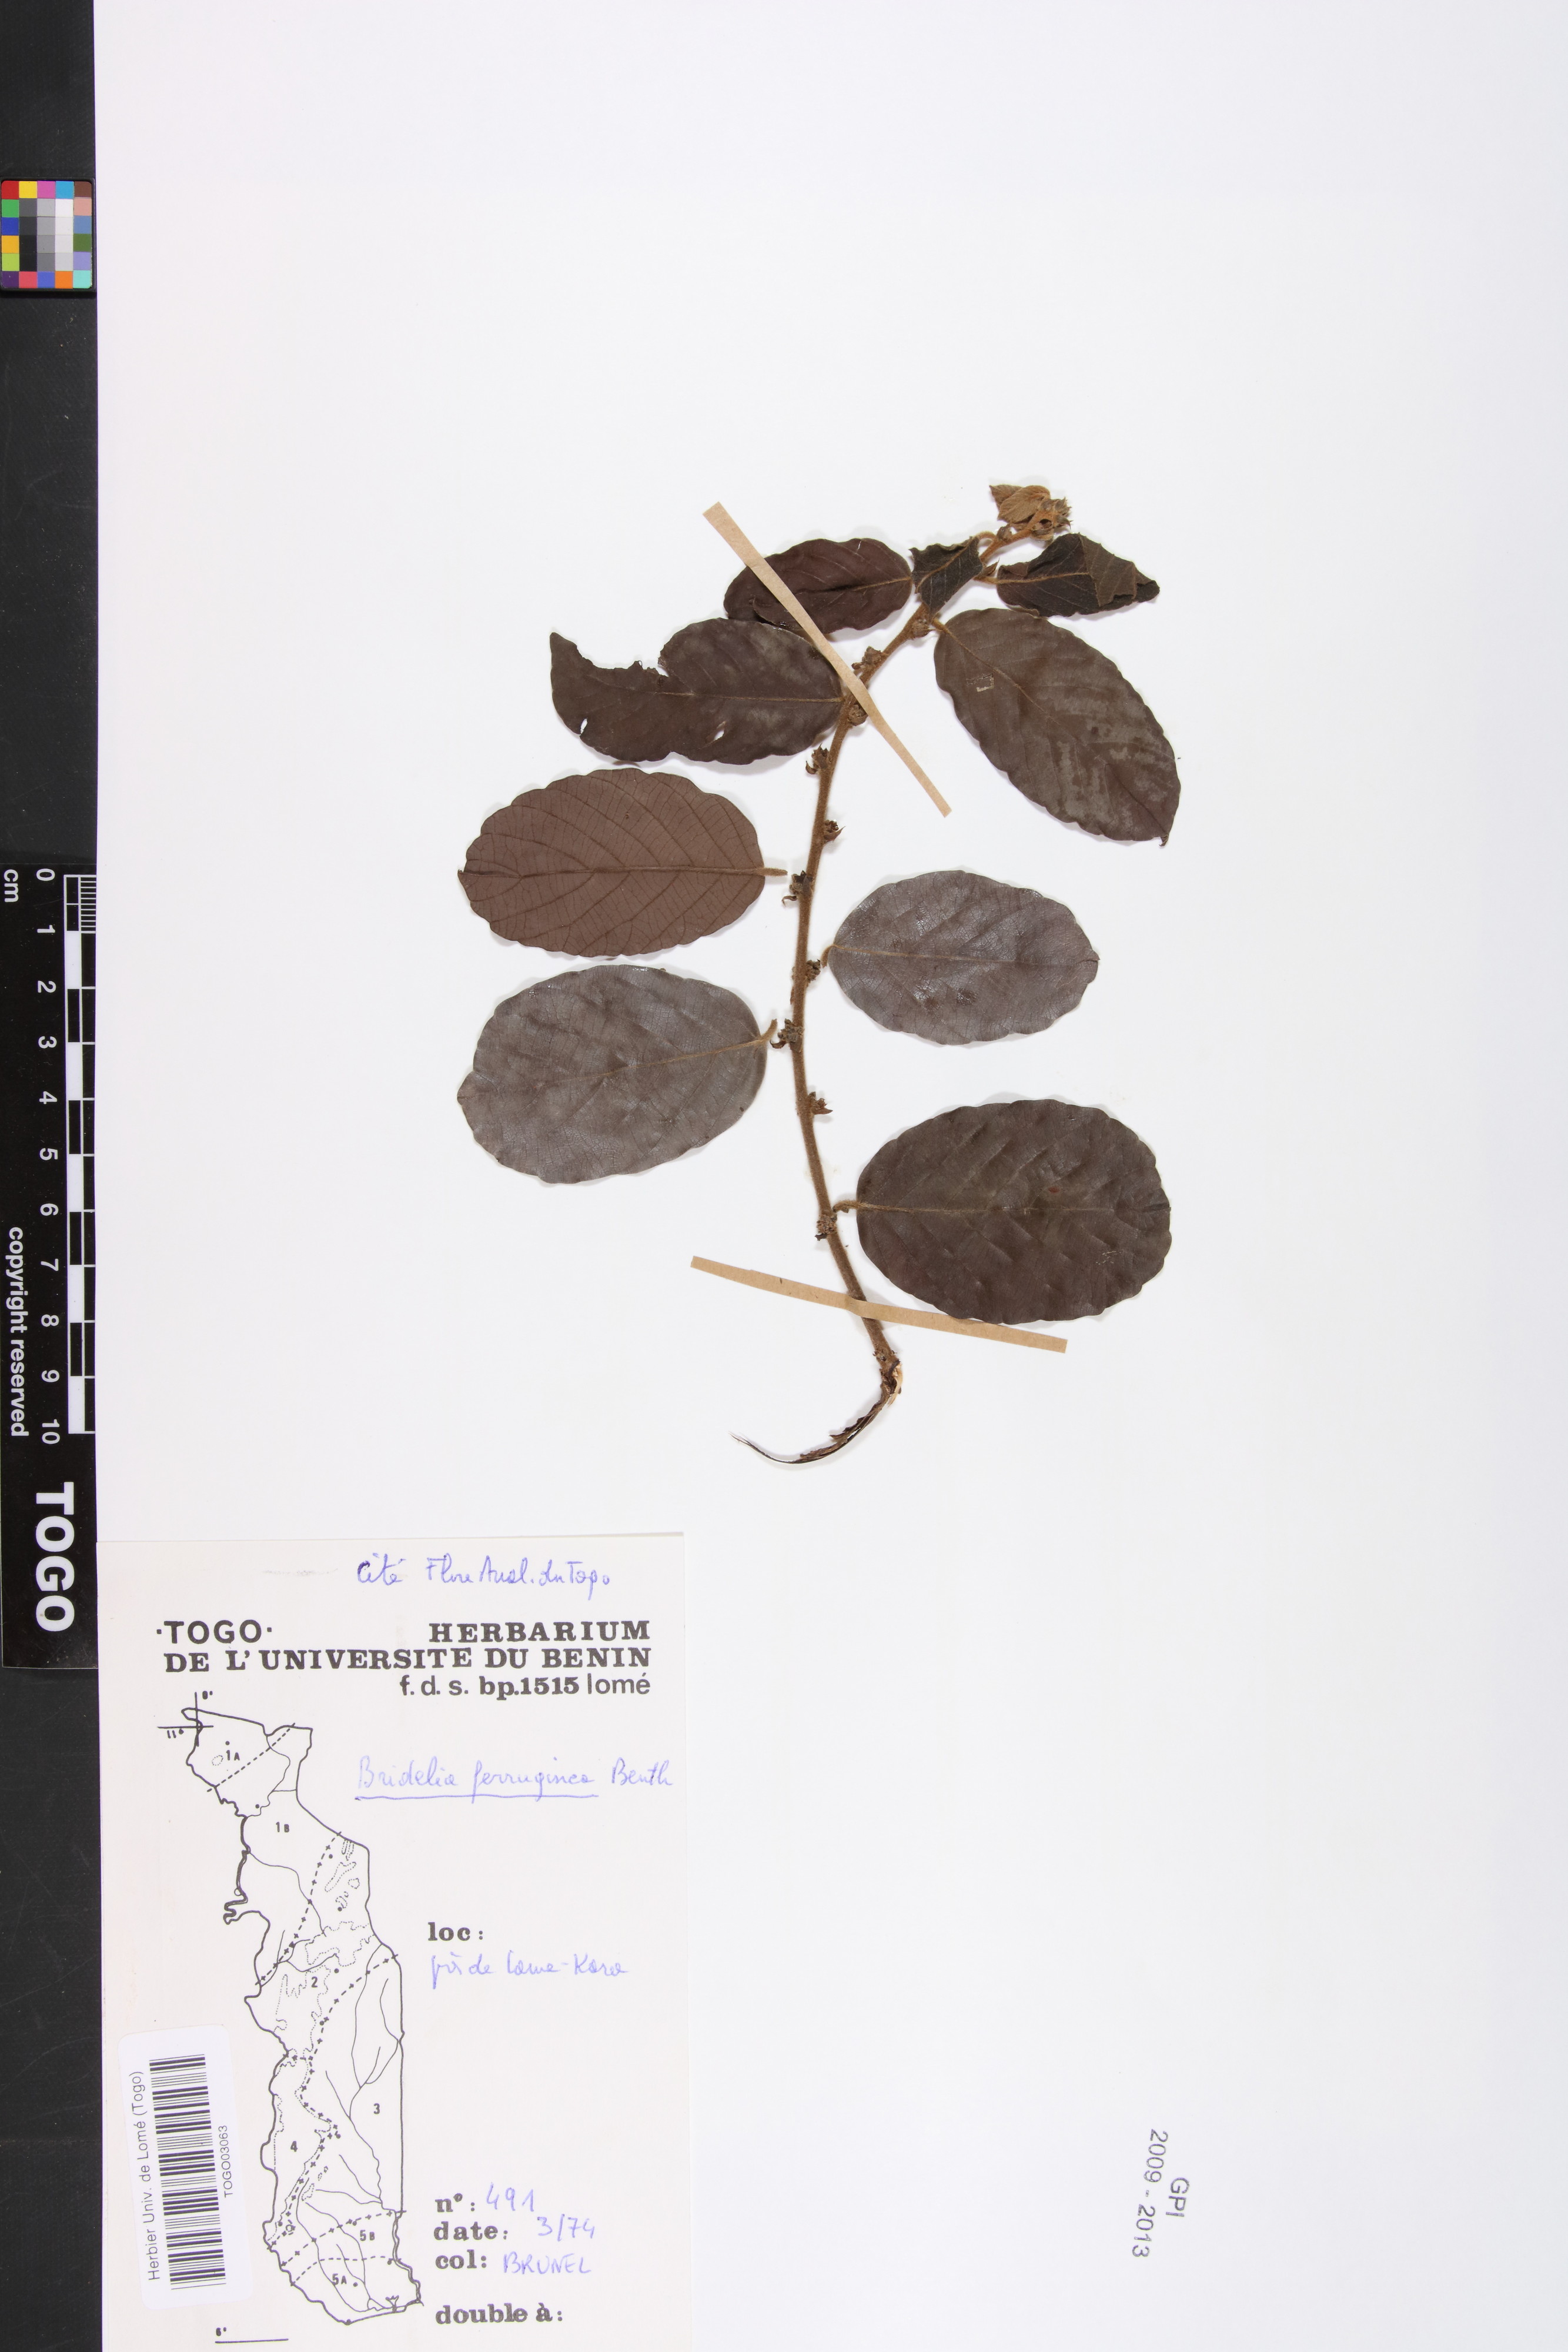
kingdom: Plantae
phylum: Tracheophyta
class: Magnoliopsida
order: Malpighiales
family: Phyllanthaceae
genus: Bridelia
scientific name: Bridelia ferruginea
